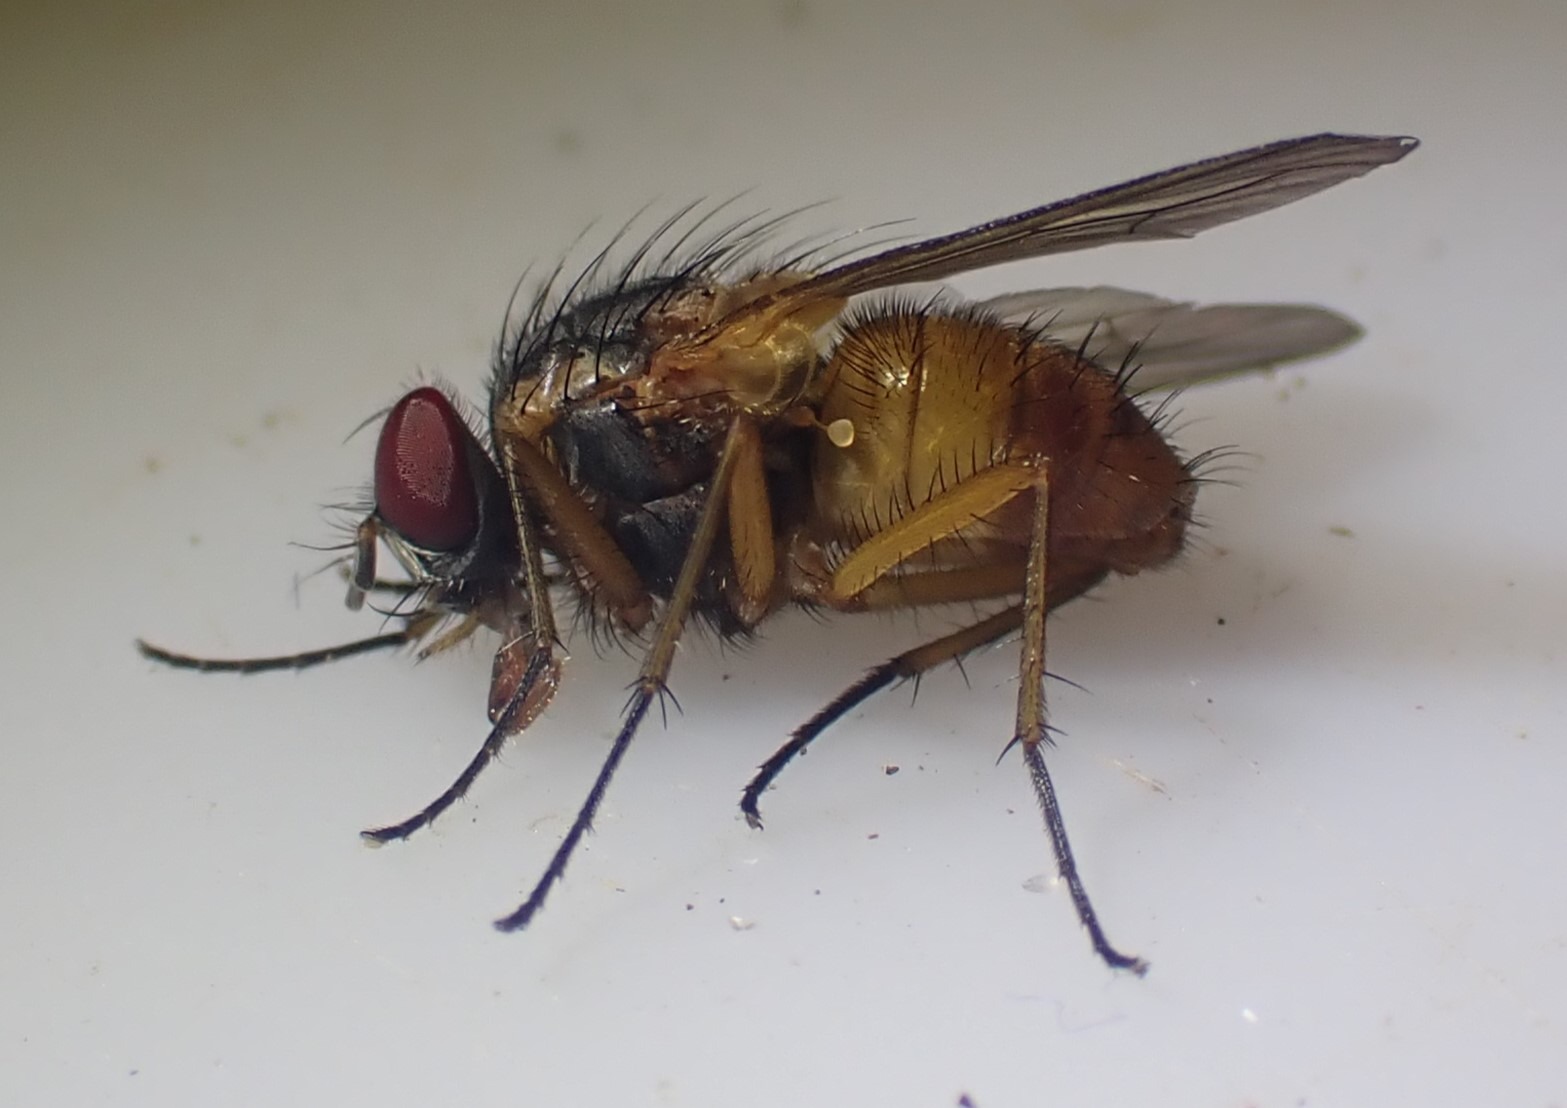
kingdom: Animalia
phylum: Arthropoda
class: Insecta
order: Diptera
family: Muscidae
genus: Phaonia
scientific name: Phaonia rufiventris
